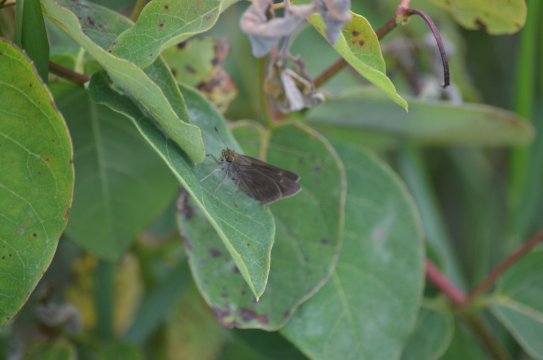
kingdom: Animalia
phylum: Arthropoda
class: Insecta
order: Lepidoptera
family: Hesperiidae
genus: Euphyes
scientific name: Euphyes vestris
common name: Dun Skipper
